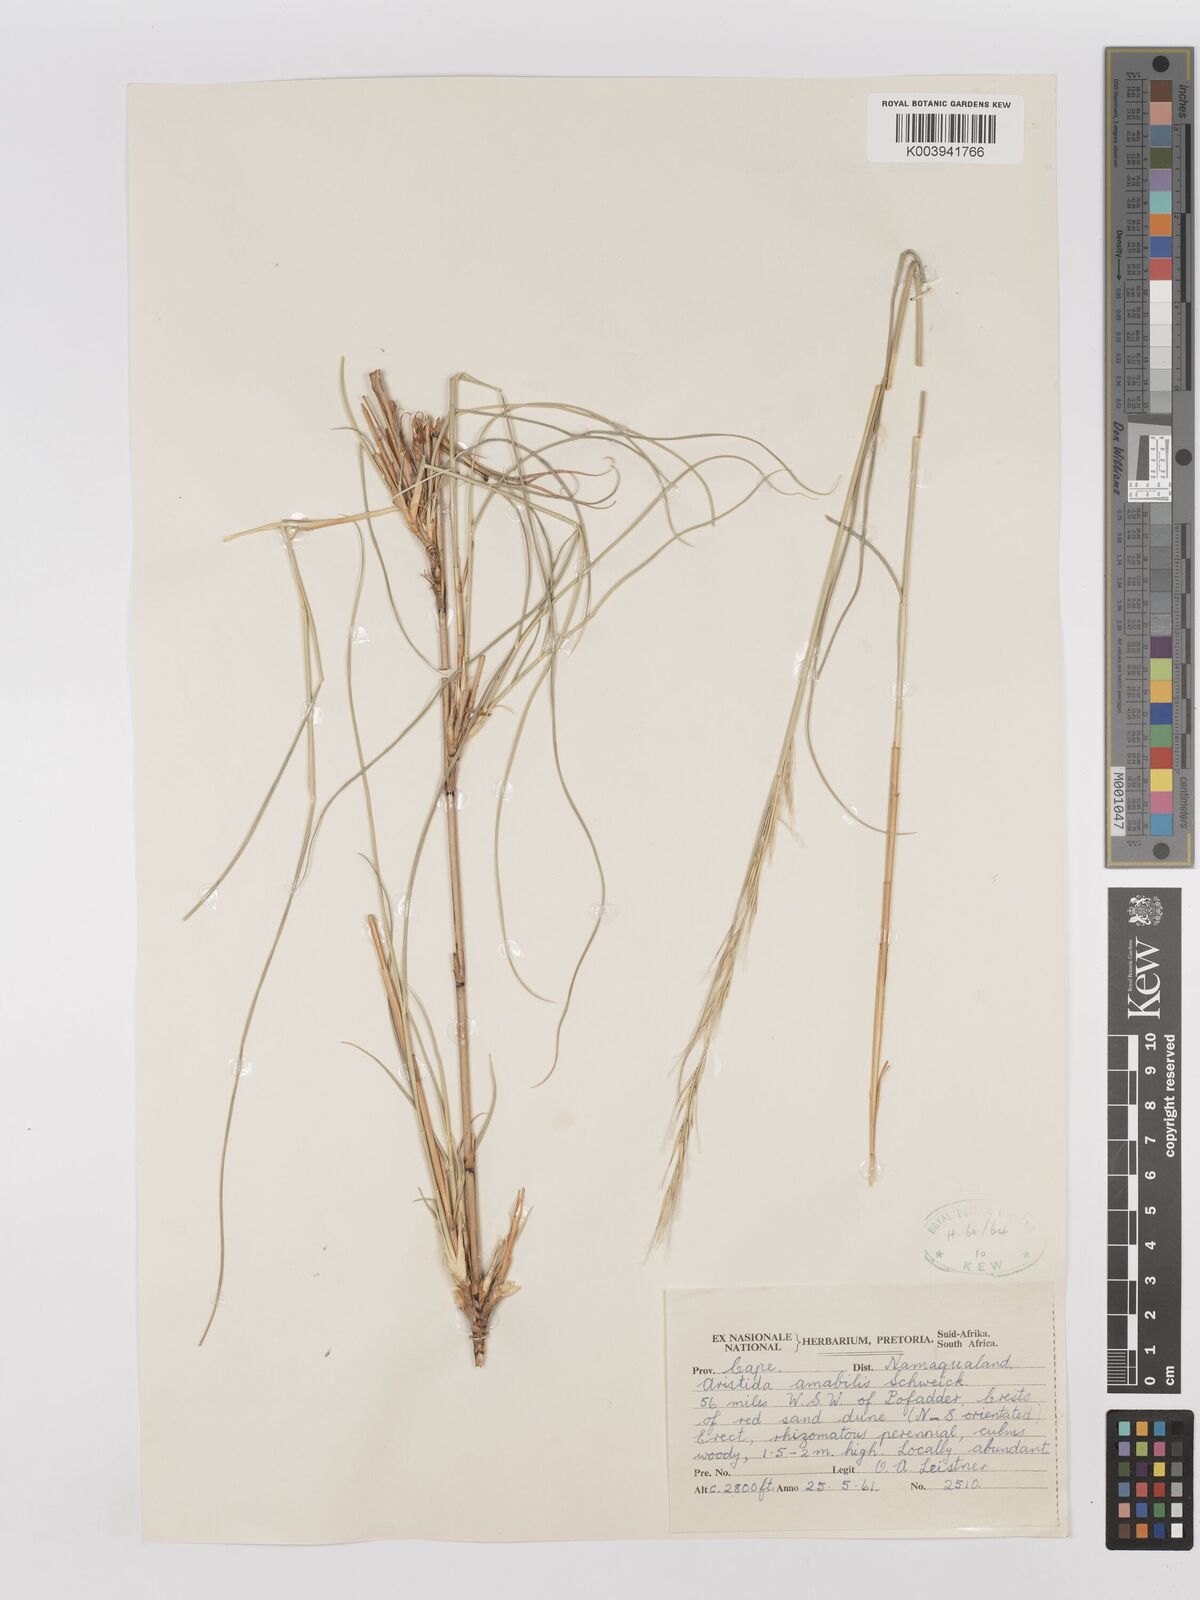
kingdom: Plantae
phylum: Tracheophyta
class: Liliopsida
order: Poales
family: Poaceae
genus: Stipagrostis
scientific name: Stipagrostis amabilis
